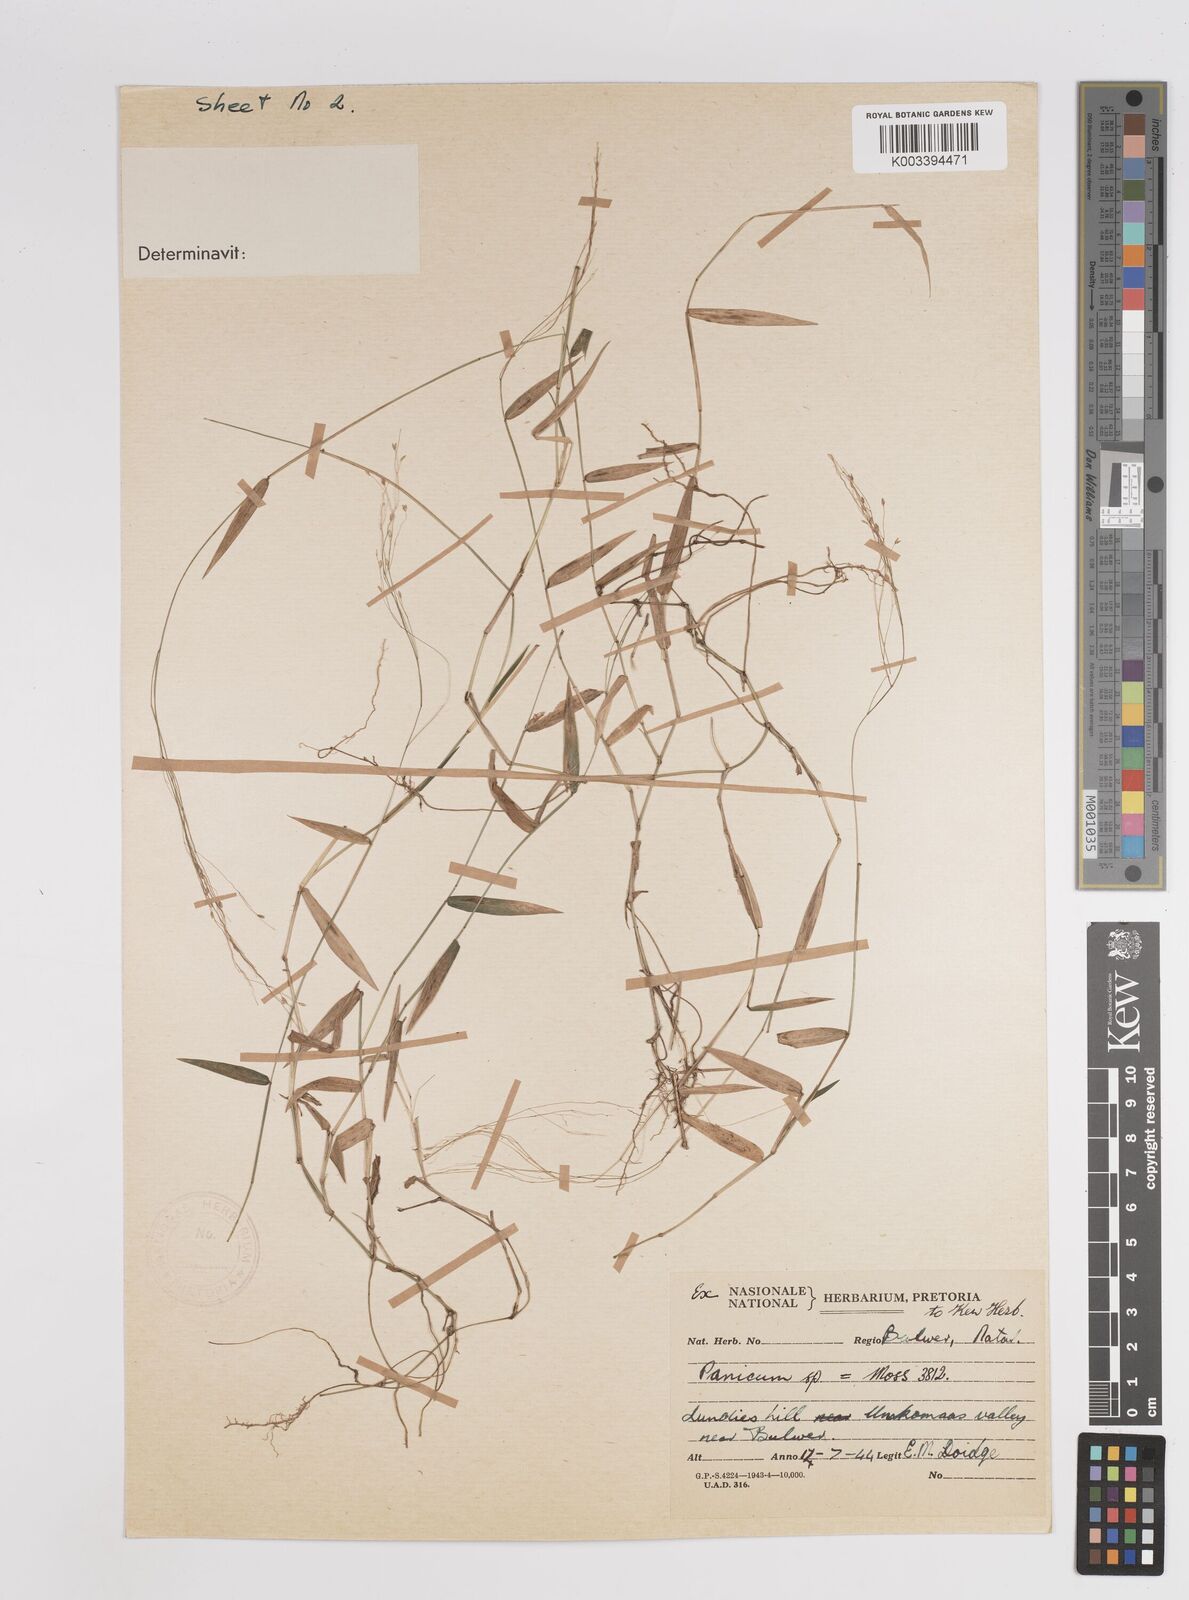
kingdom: Plantae
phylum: Tracheophyta
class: Liliopsida
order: Poales
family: Poaceae
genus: Panicum
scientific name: Panicum
